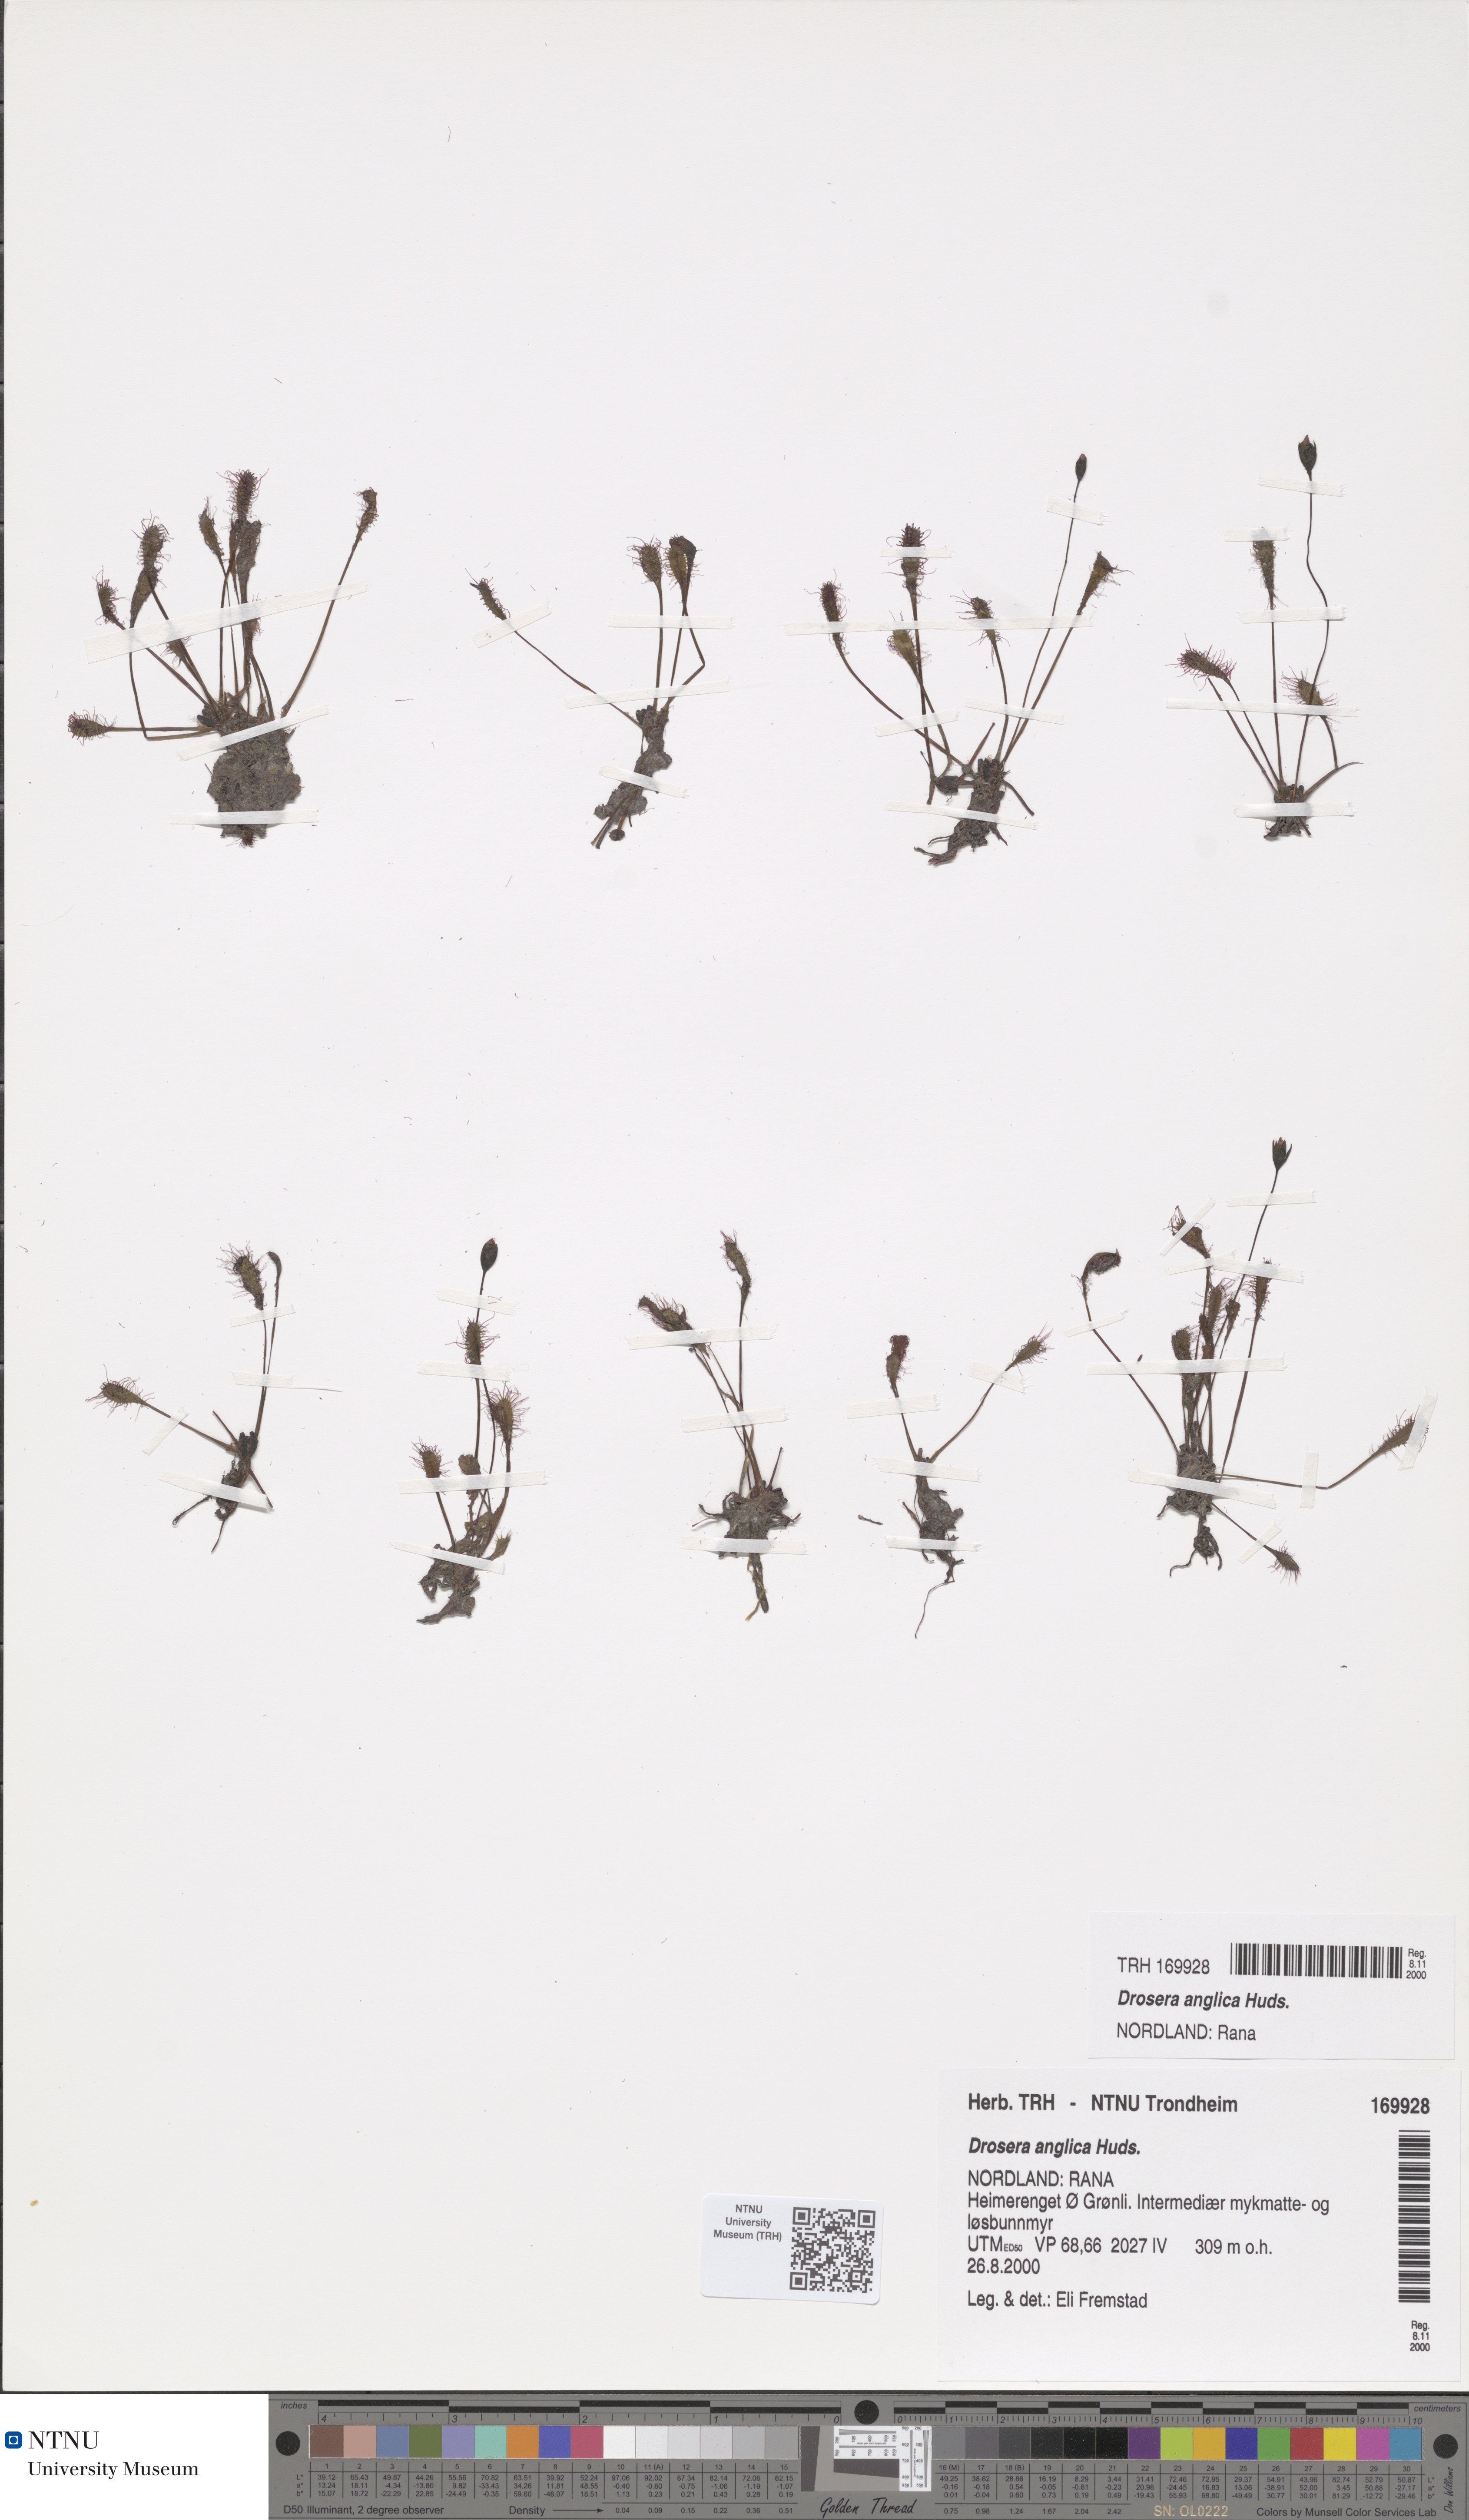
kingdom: Plantae
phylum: Tracheophyta
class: Magnoliopsida
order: Caryophyllales
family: Droseraceae
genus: Drosera
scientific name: Drosera anglica
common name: Great sundew
